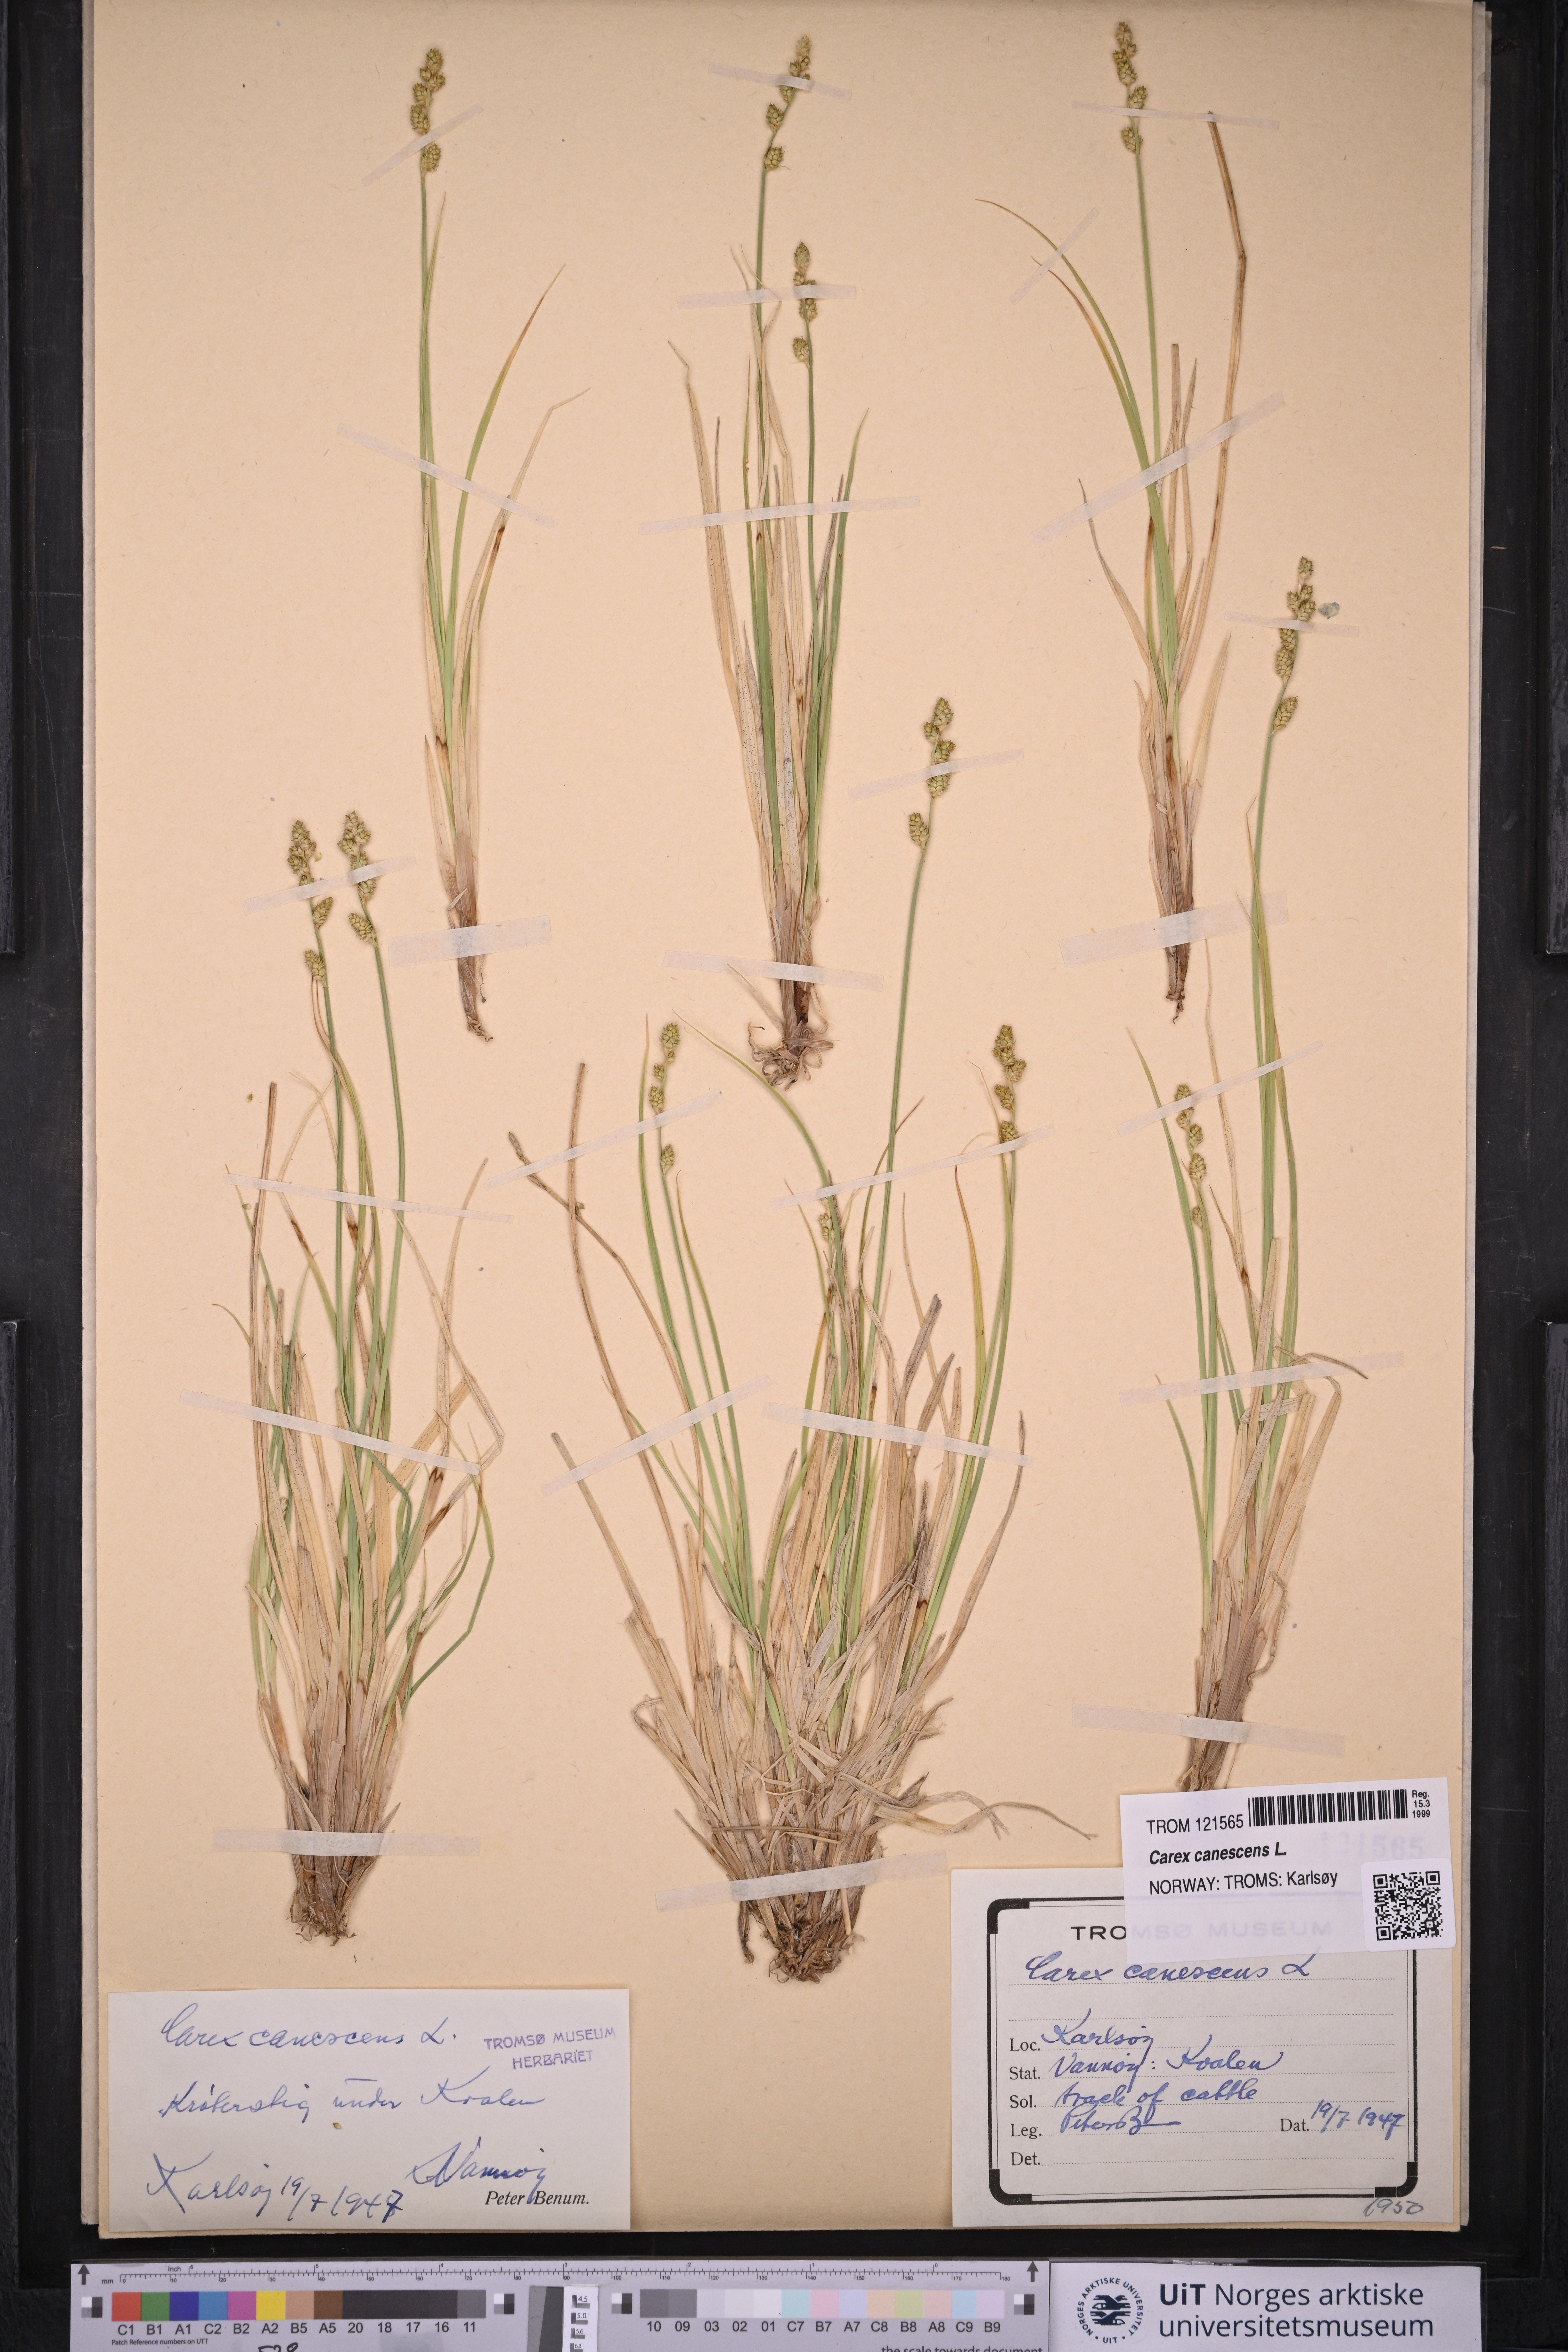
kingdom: Plantae
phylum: Tracheophyta
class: Liliopsida
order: Poales
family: Cyperaceae
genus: Carex
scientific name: Carex canescens
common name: White sedge
